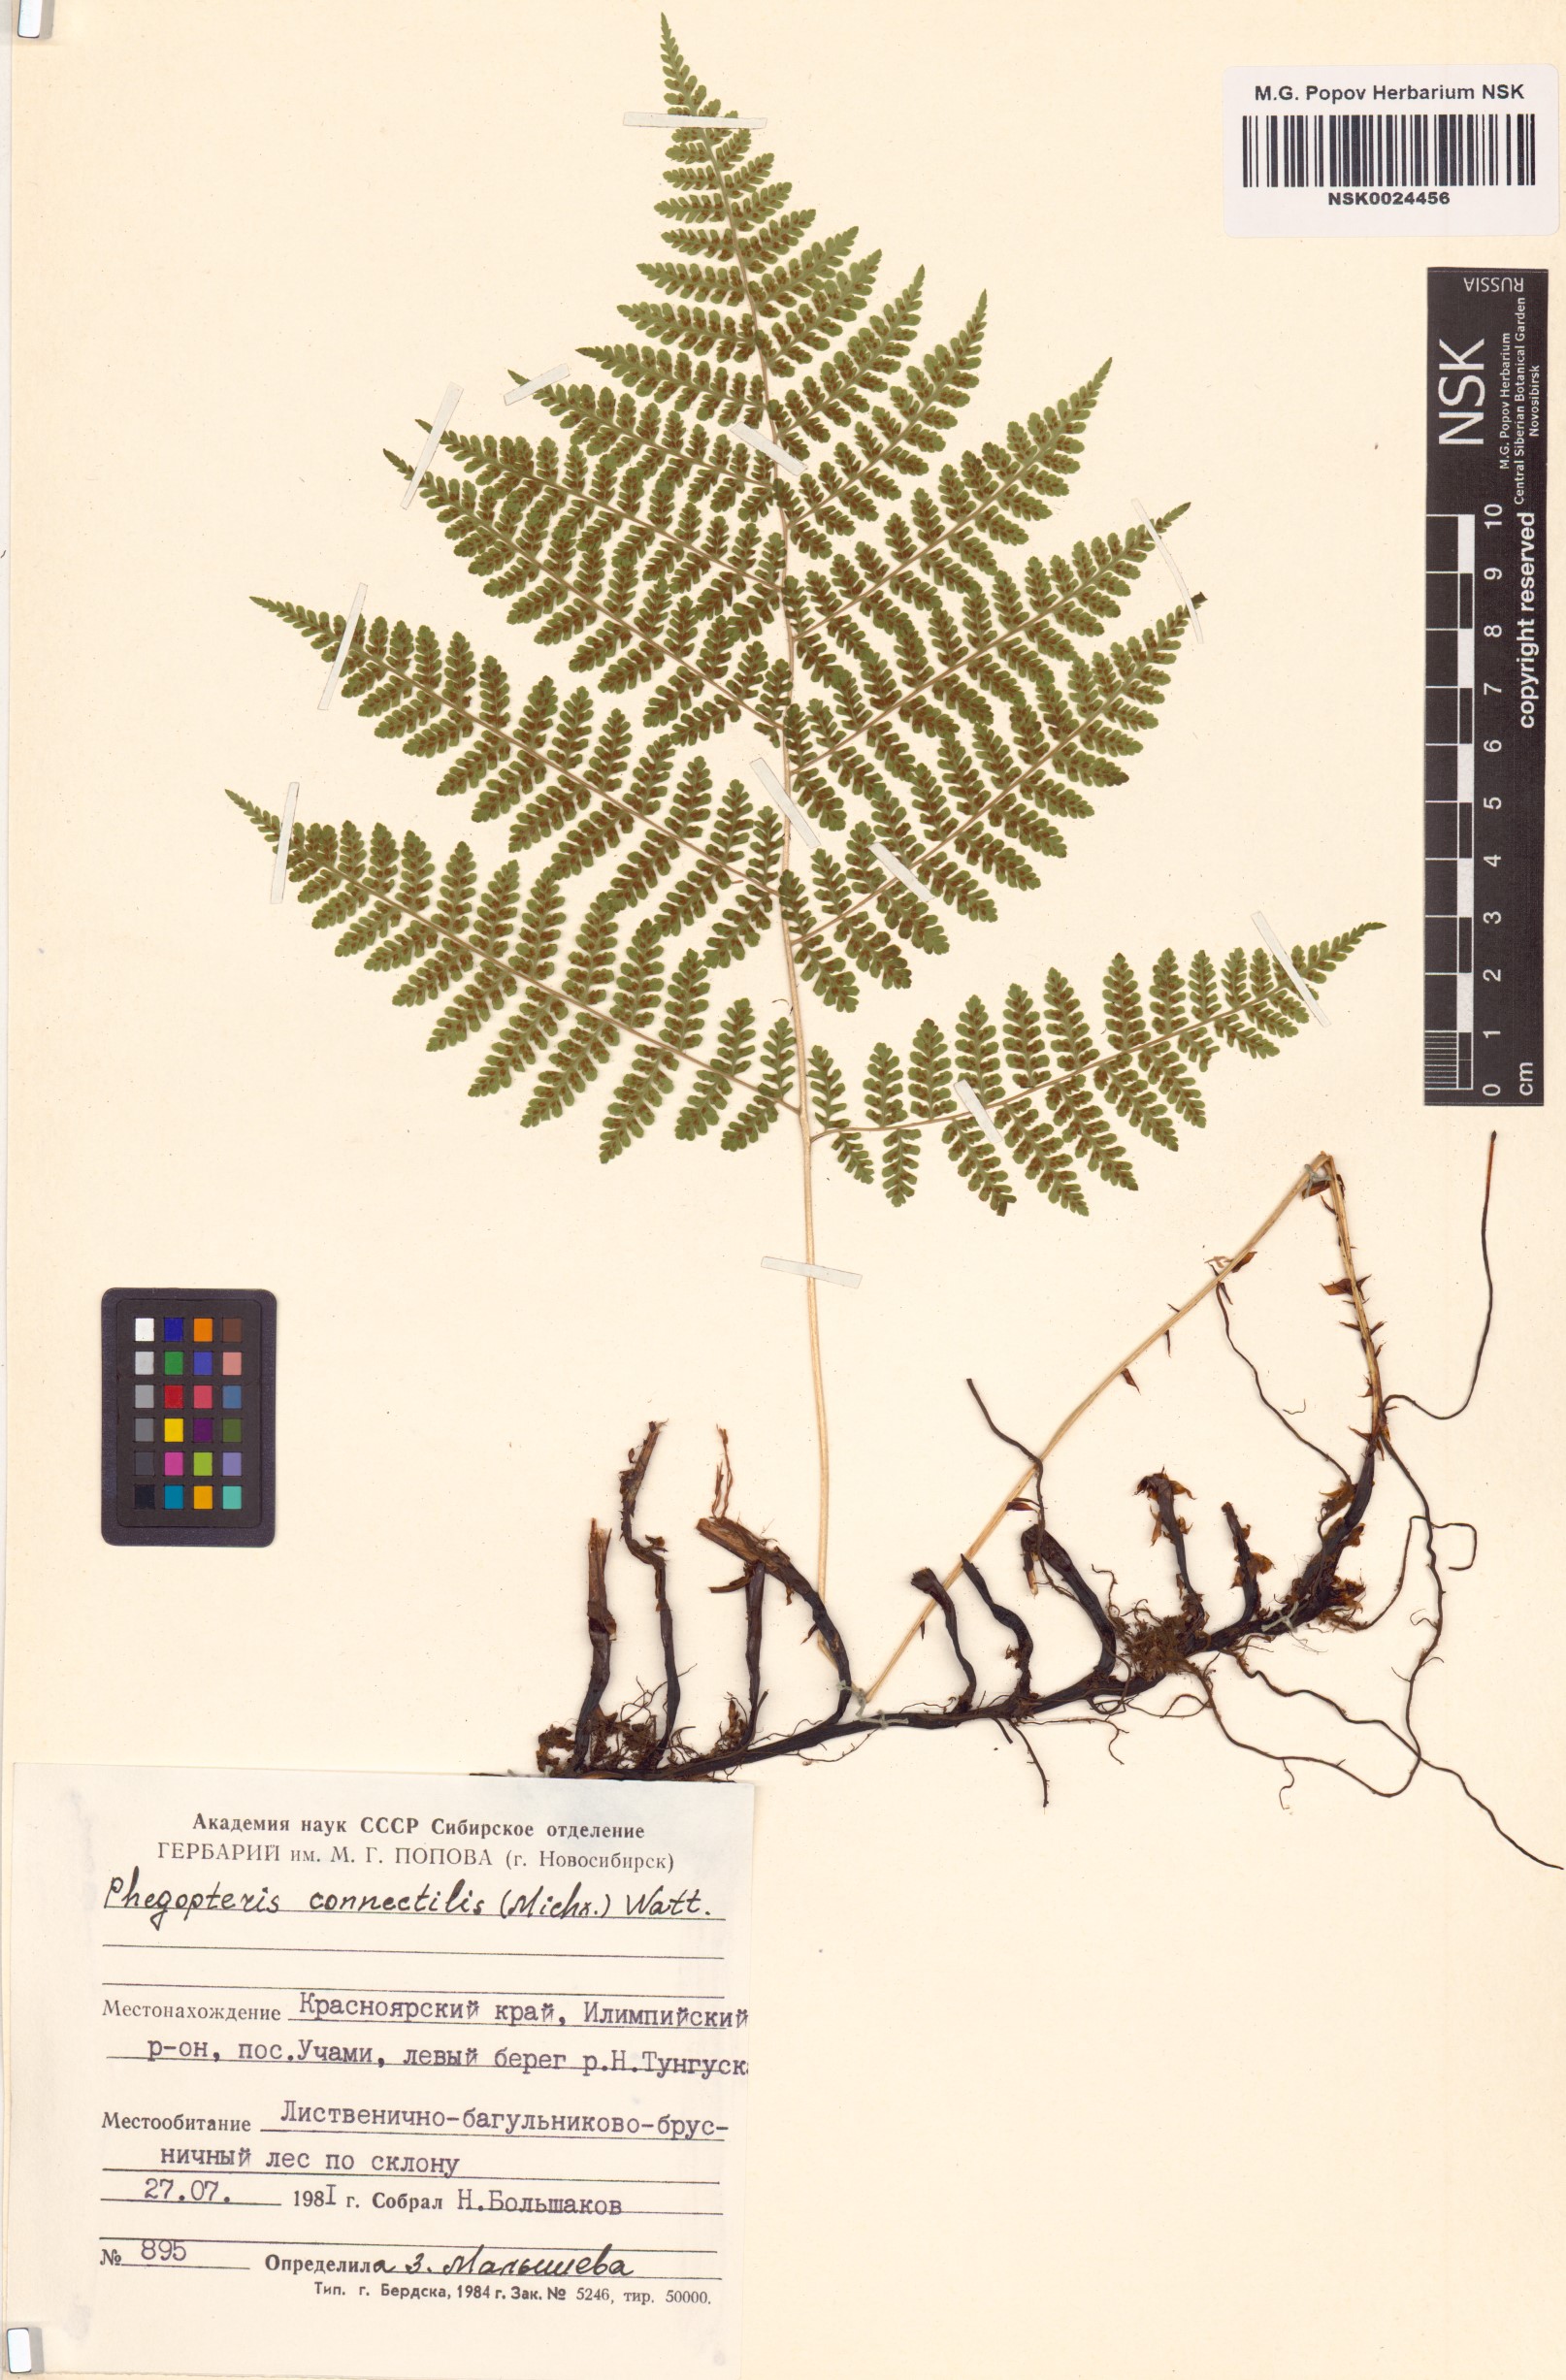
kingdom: Plantae
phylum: Tracheophyta
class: Polypodiopsida
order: Polypodiales
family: Thelypteridaceae
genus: Phegopteris
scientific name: Phegopteris connectilis
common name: Beech fern
